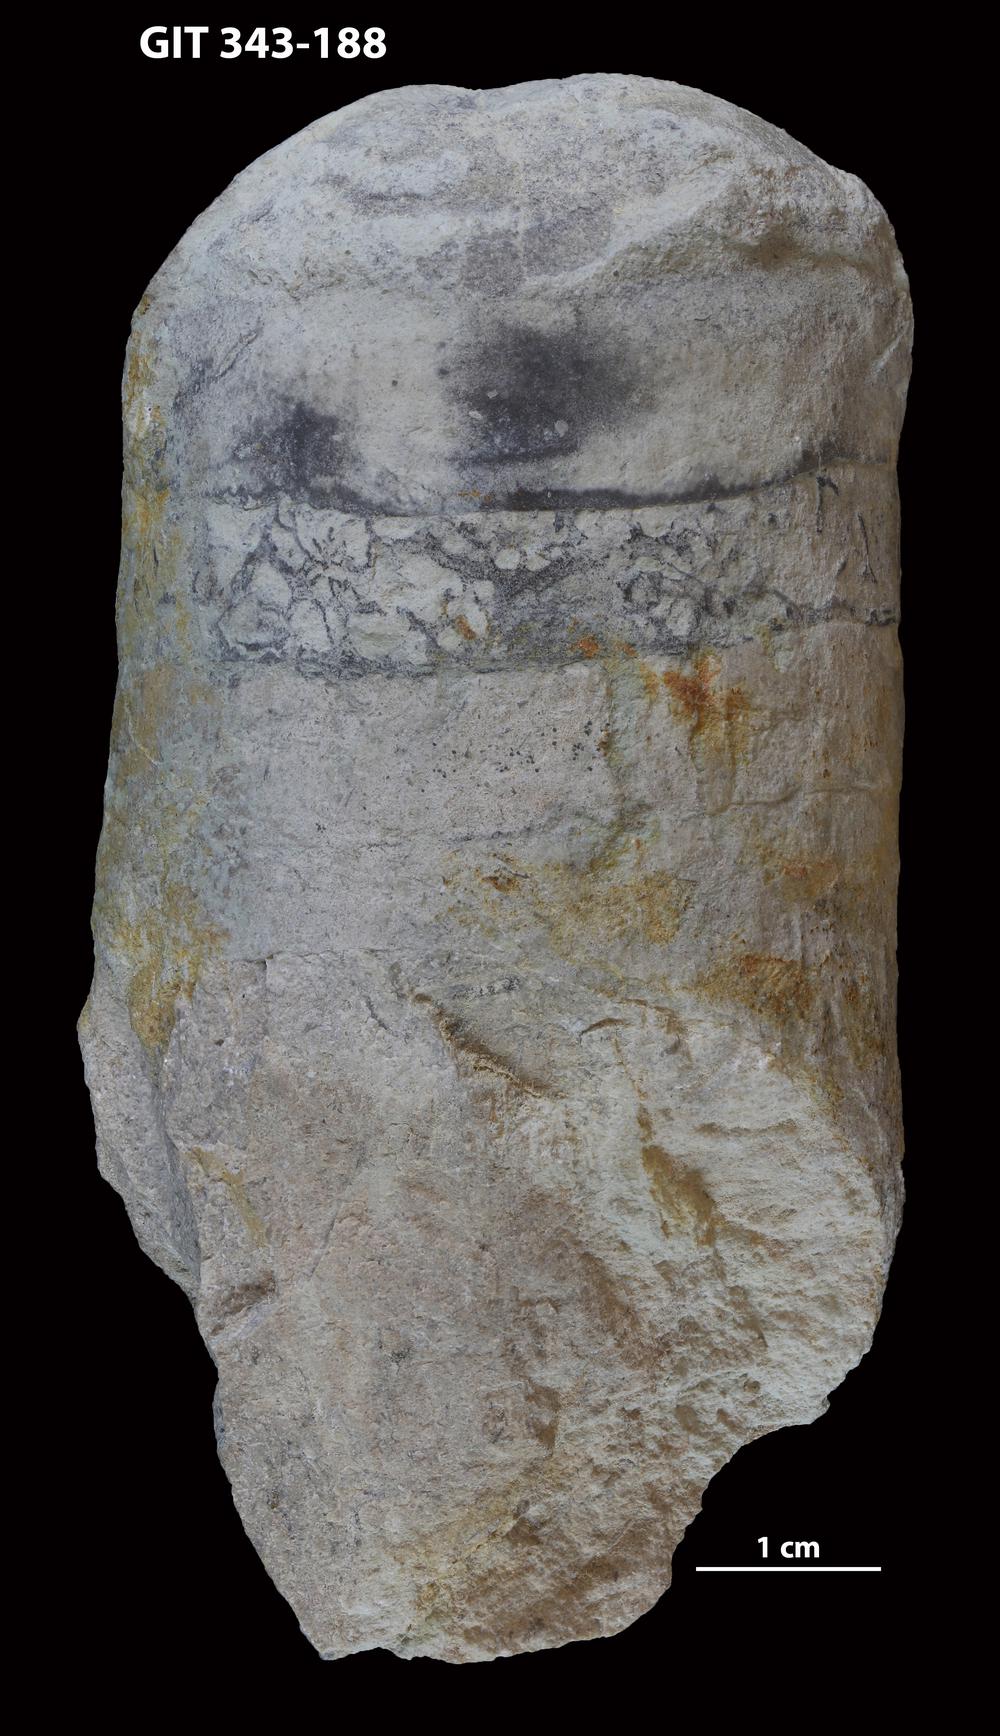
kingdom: Animalia
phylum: Mollusca
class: Cephalopoda
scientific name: Cephalopoda
